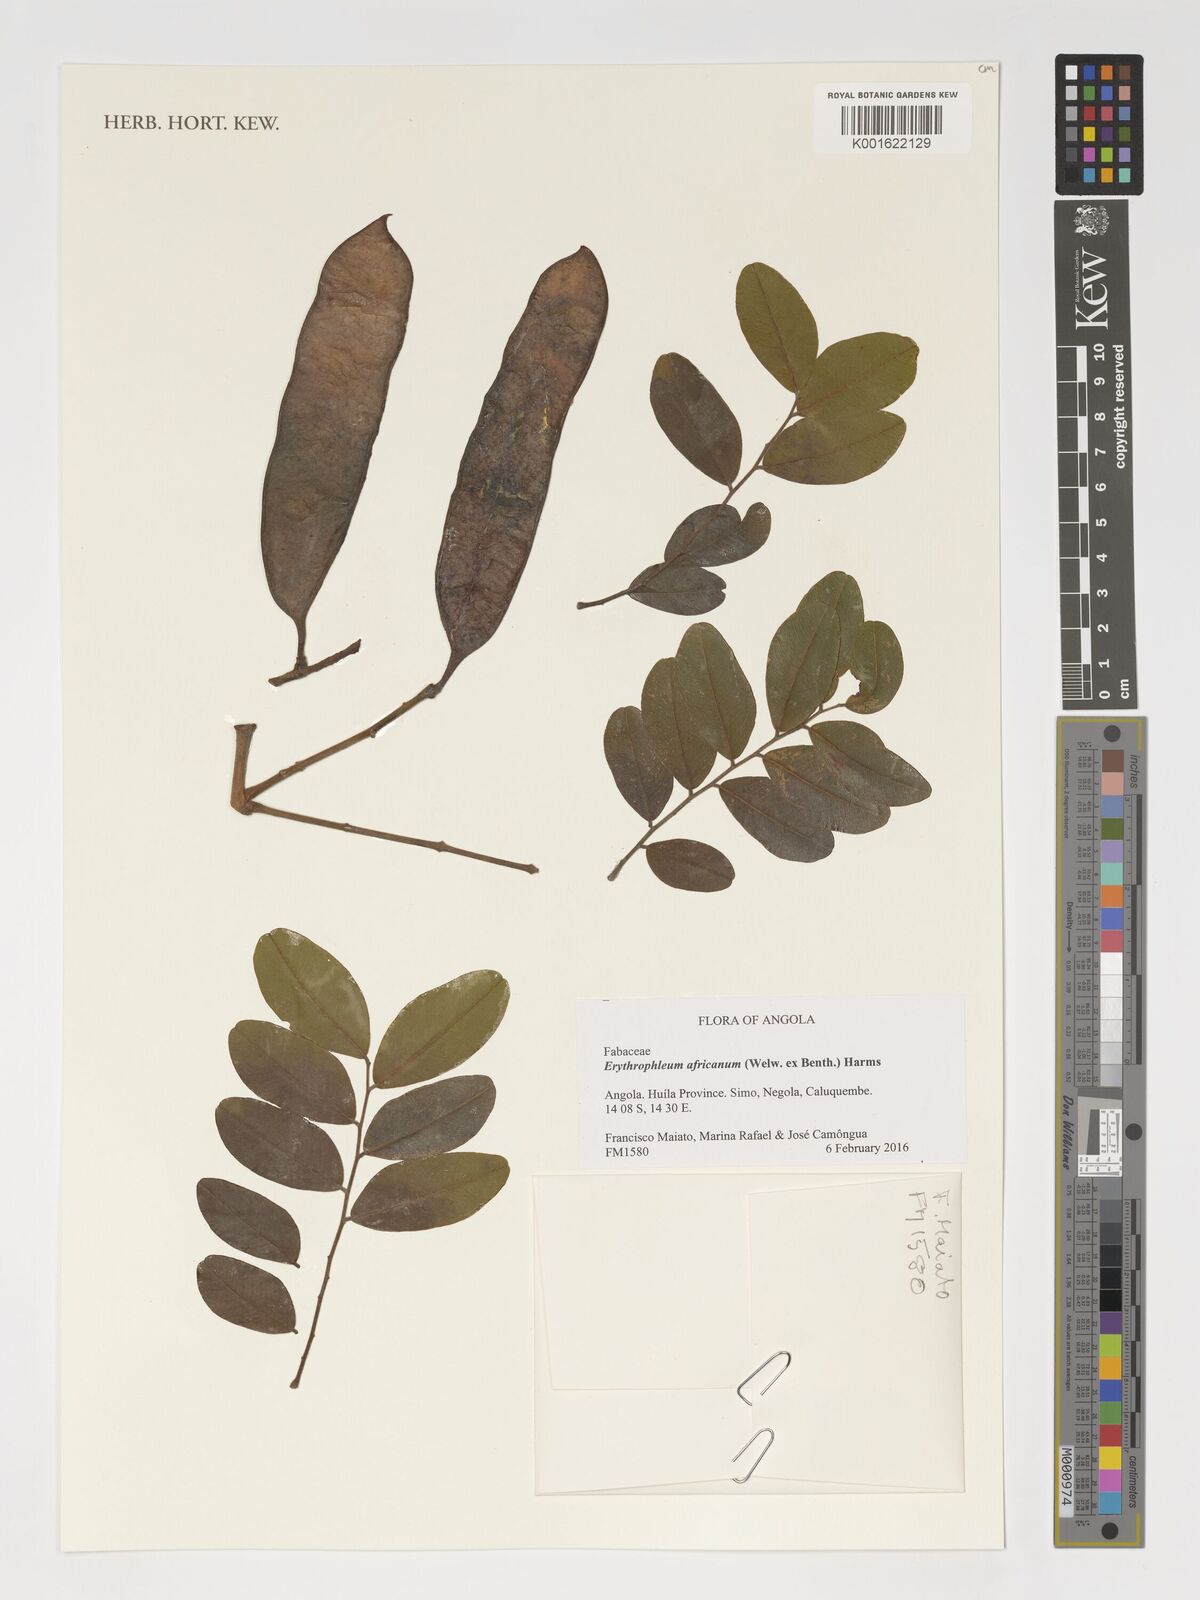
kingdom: Plantae
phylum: Tracheophyta
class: Magnoliopsida
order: Fabales
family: Fabaceae
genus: Erythrophleum
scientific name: Erythrophleum africanum
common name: African blackwood
